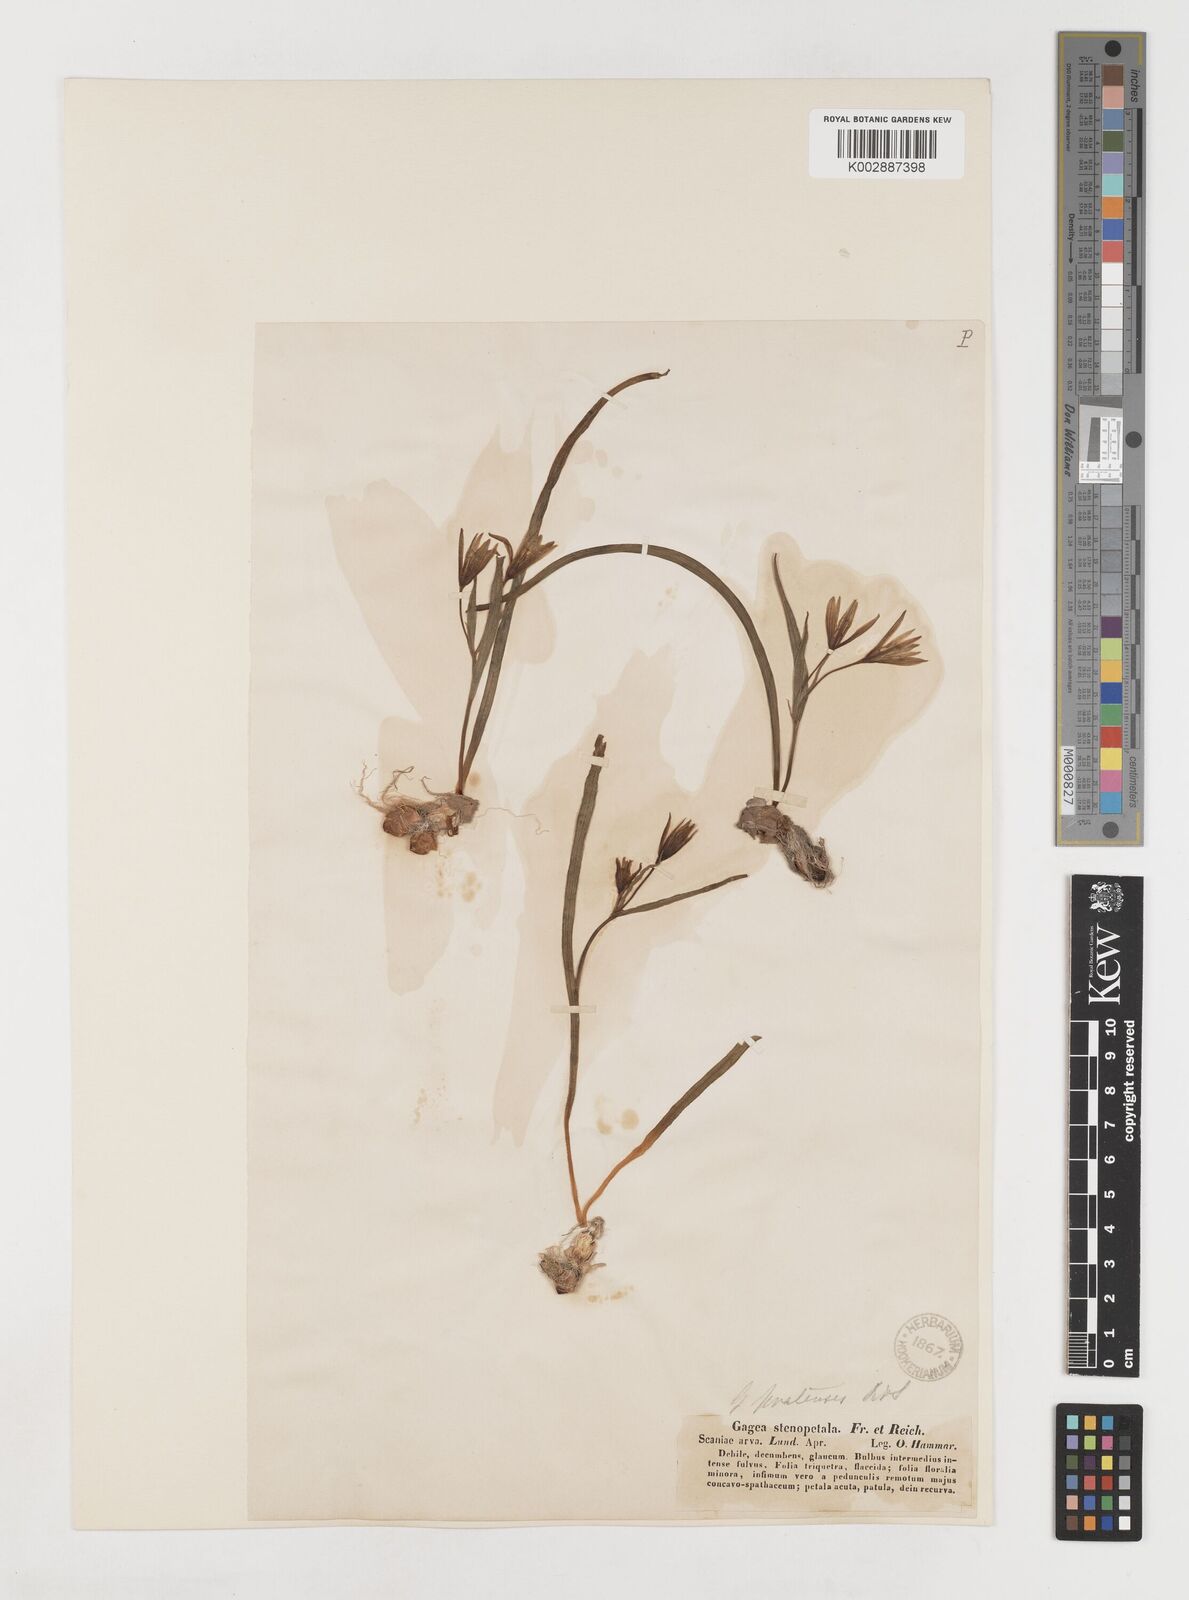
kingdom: Plantae
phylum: Tracheophyta
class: Liliopsida
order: Liliales
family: Liliaceae
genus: Gagea
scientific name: Gagea pratensis
